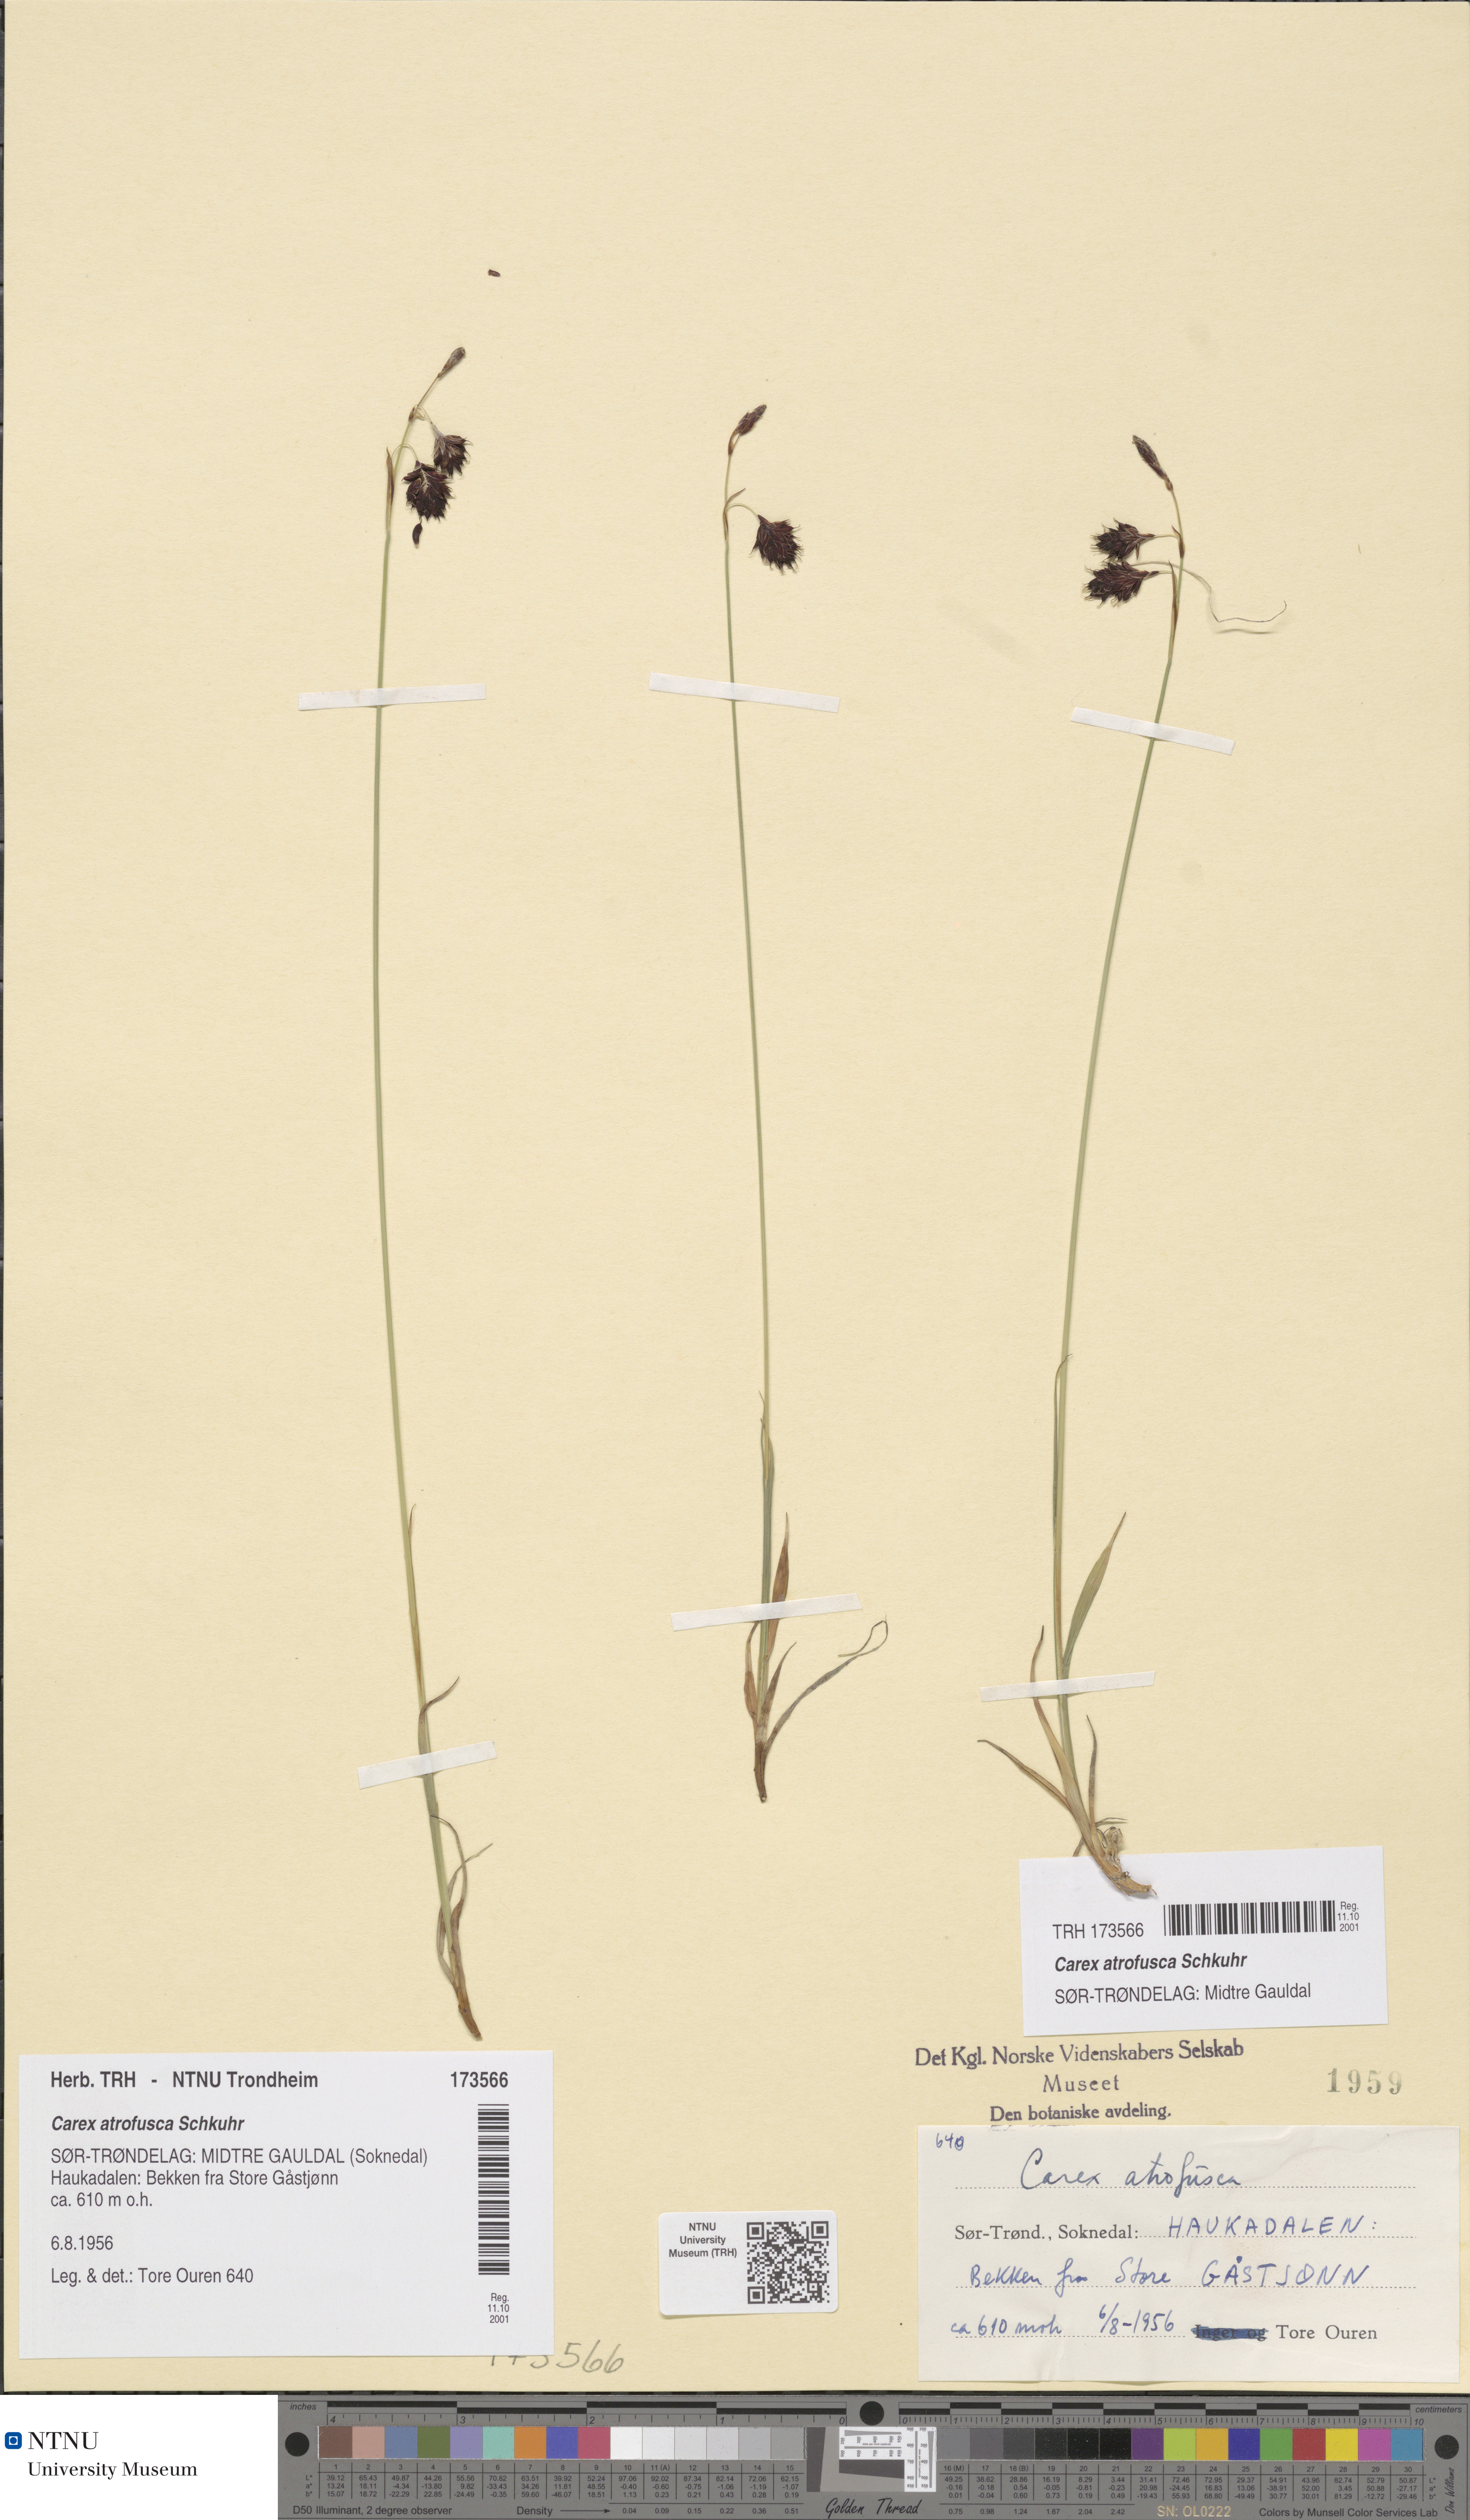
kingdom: Plantae
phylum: Tracheophyta
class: Liliopsida
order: Poales
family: Cyperaceae
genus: Carex
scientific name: Carex atrofusca
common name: Scorched alpine-sedge
